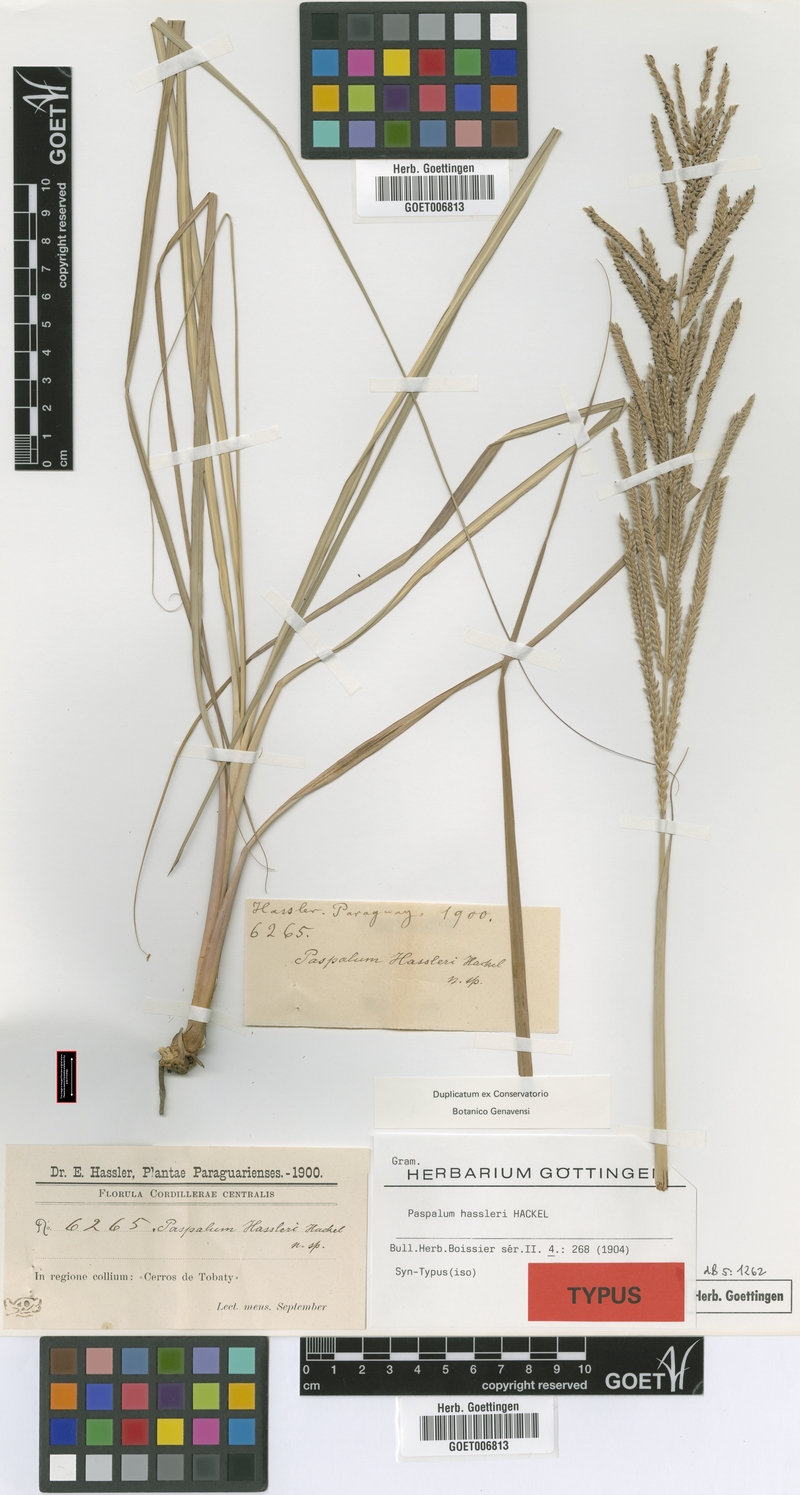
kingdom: Plantae
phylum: Tracheophyta
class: Liliopsida
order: Poales
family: Poaceae
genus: Paspalum
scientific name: Paspalum rufum
